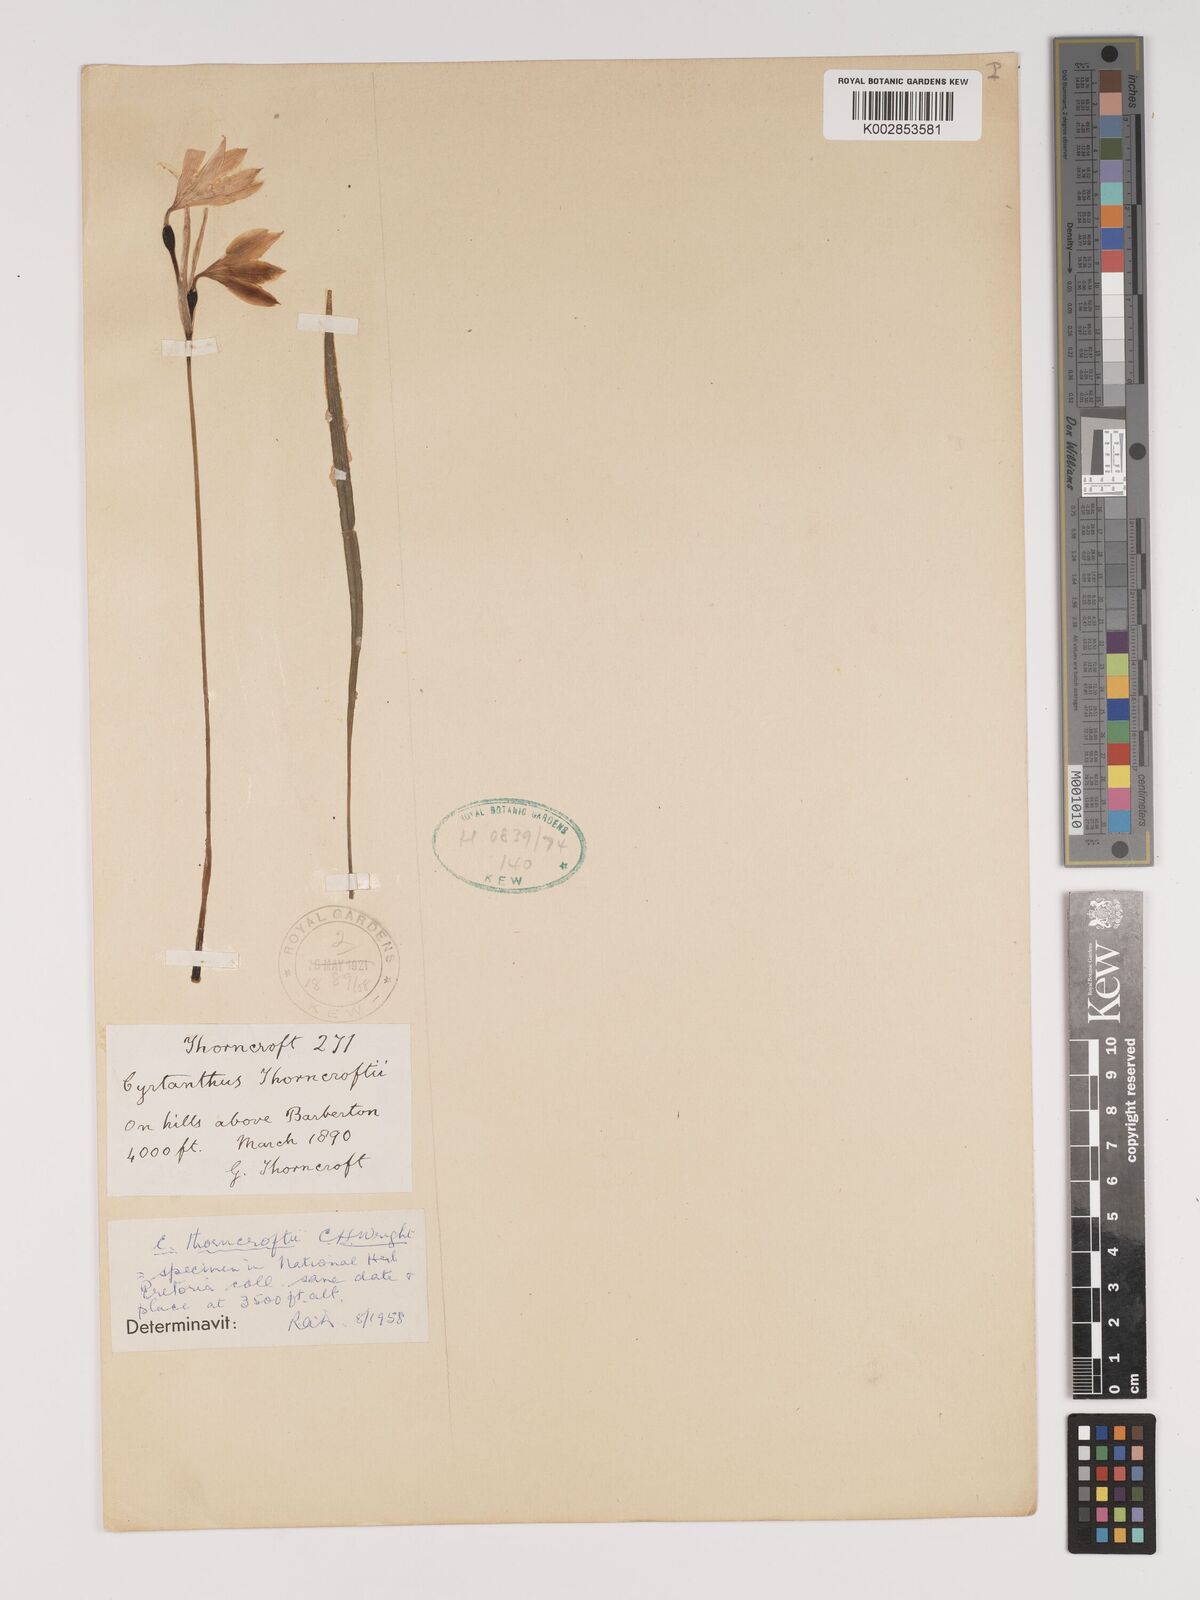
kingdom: Plantae
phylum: Tracheophyta
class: Liliopsida
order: Asparagales
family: Amaryllidaceae
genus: Cyrtanthus
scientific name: Cyrtanthus thorncroftii
